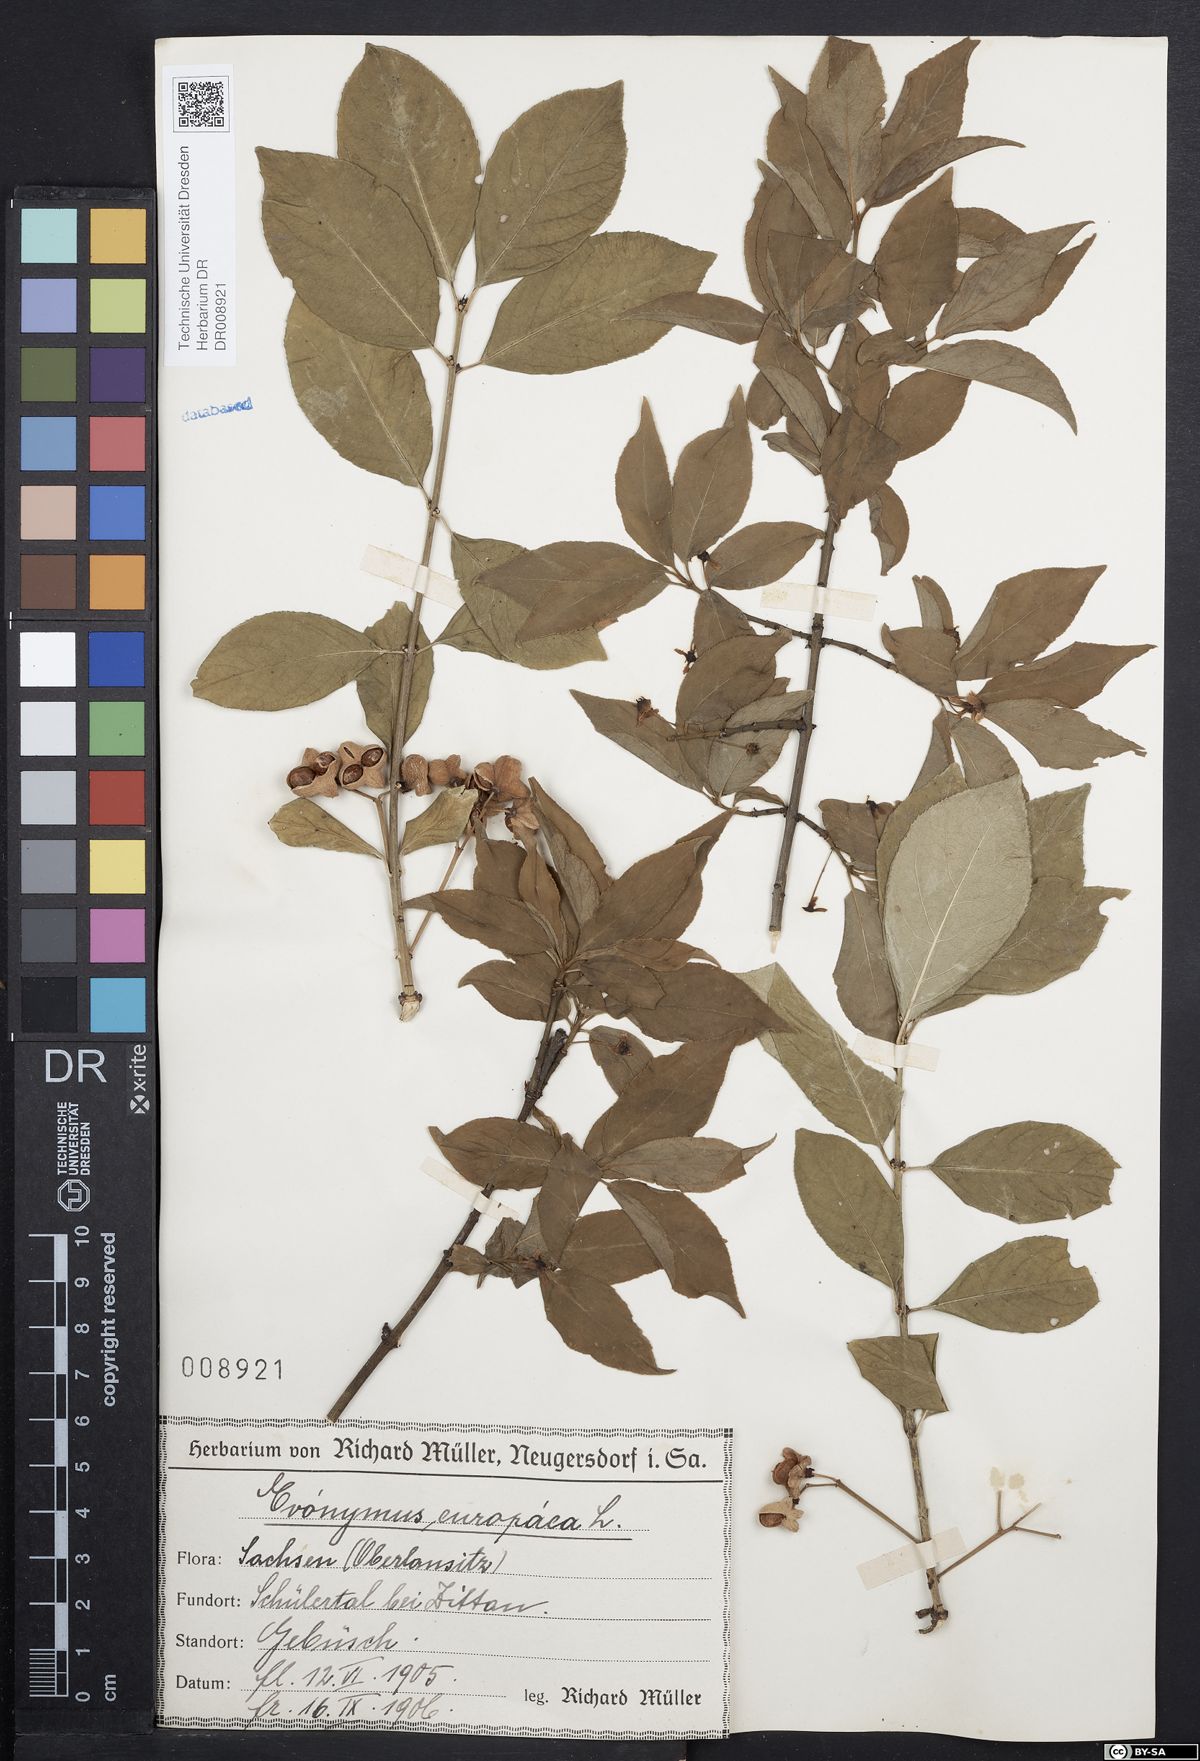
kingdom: Plantae
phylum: Tracheophyta
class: Magnoliopsida
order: Celastrales
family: Celastraceae
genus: Euonymus
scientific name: Euonymus europaeus
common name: Spindle
